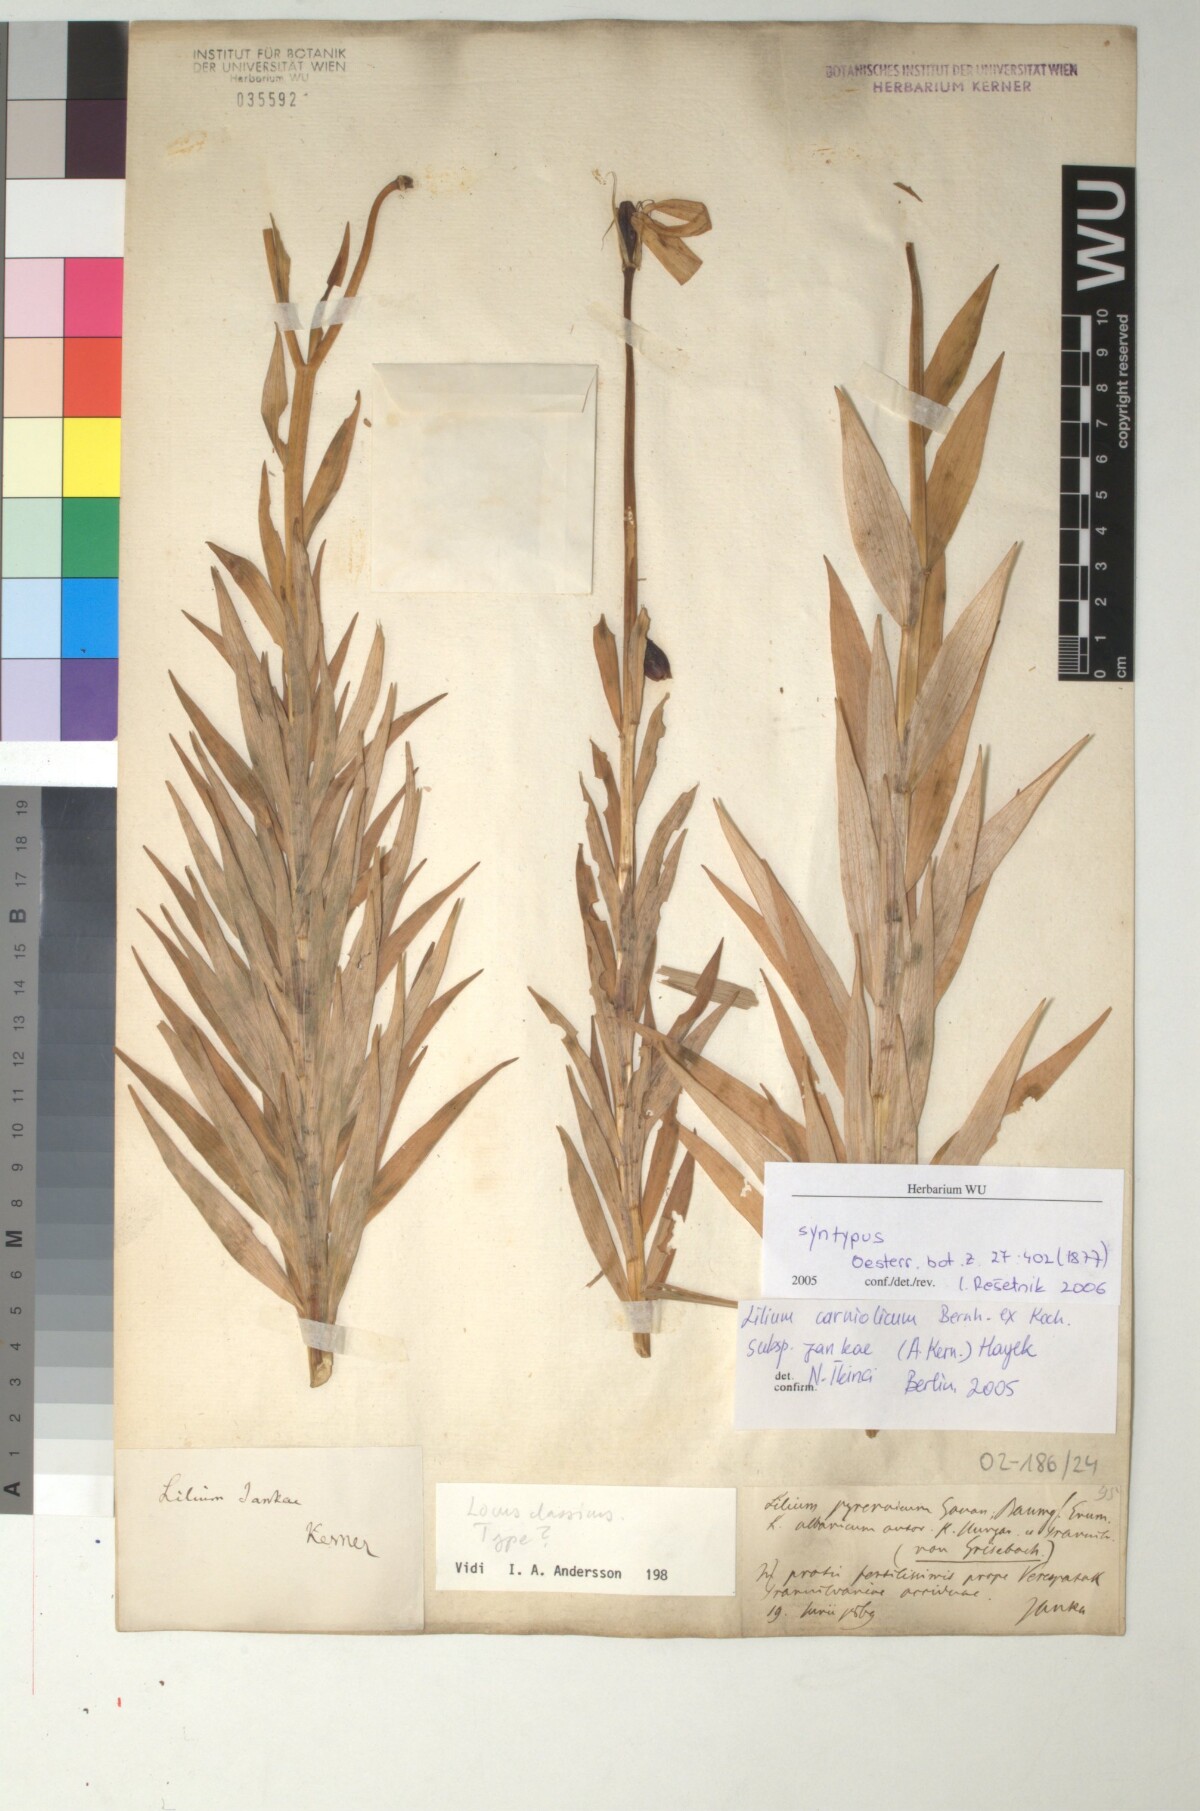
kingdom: Plantae
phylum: Tracheophyta
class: Liliopsida
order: Liliales
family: Liliaceae
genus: Lilium
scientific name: Lilium jankae
